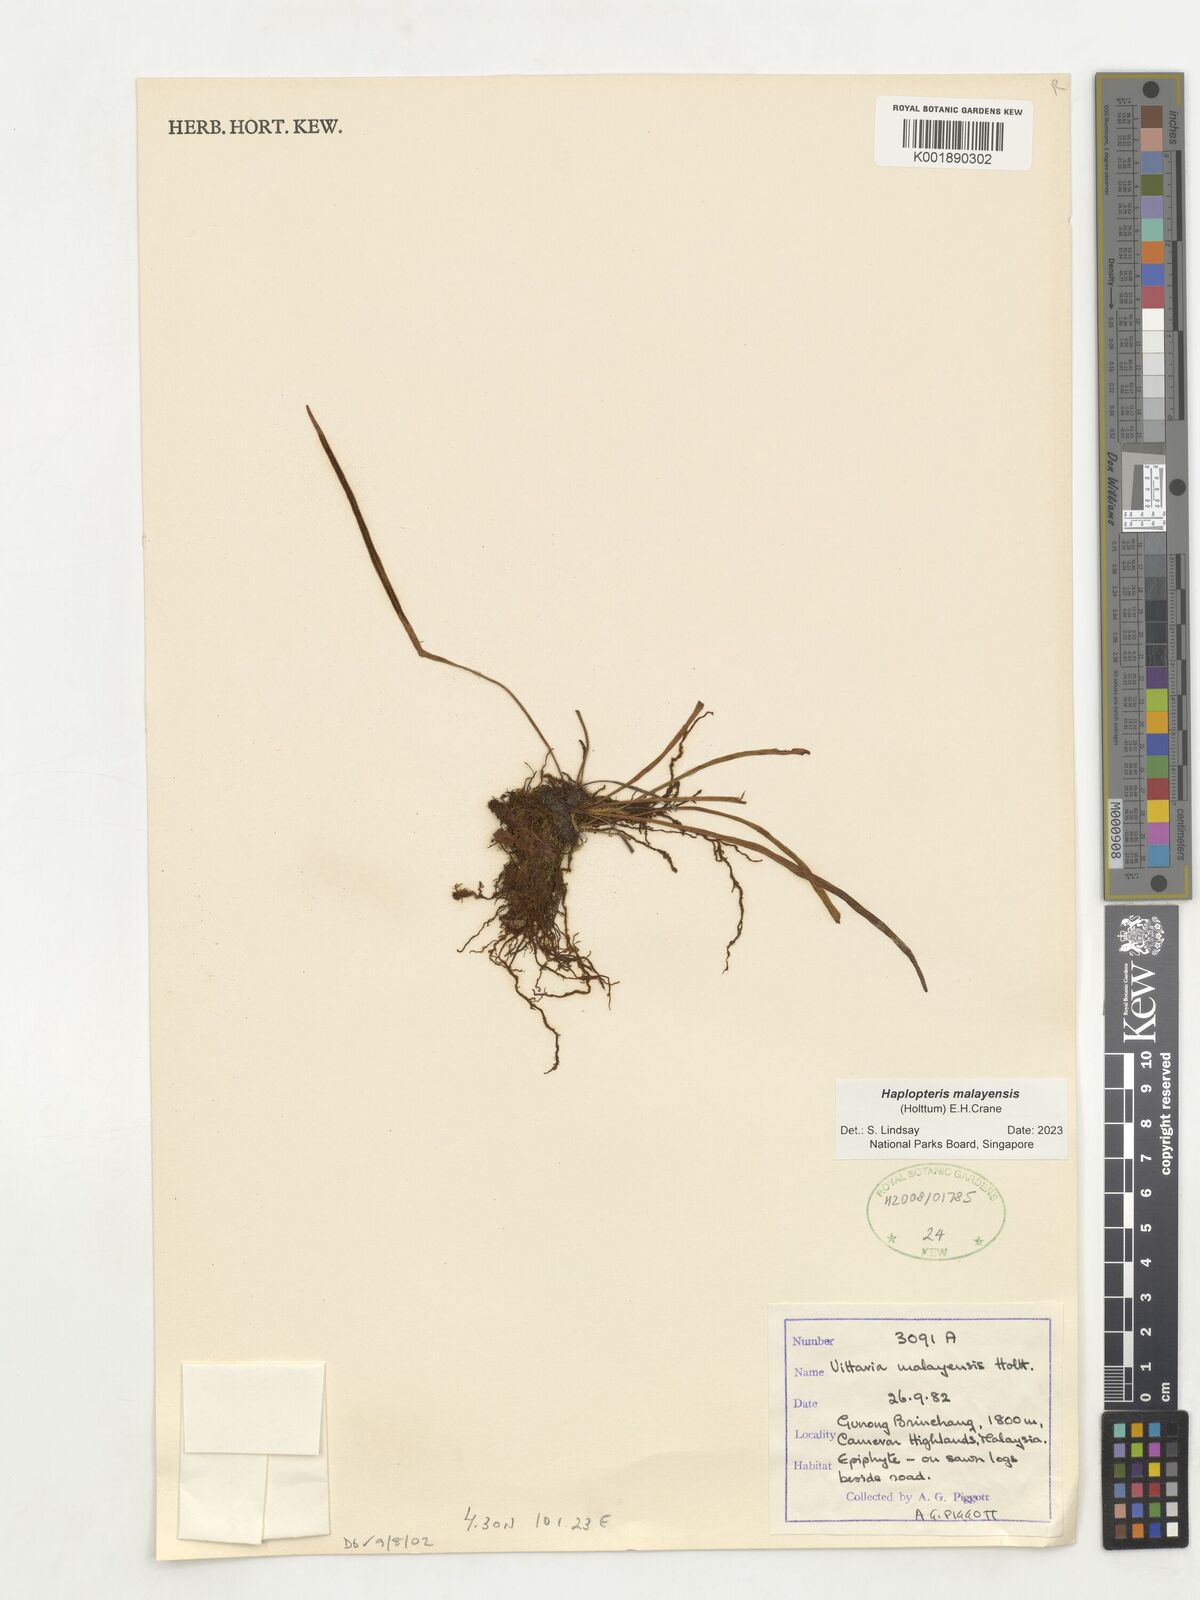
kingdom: Plantae
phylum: Tracheophyta
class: Polypodiopsida
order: Polypodiales
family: Pteridaceae
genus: Haplopteris
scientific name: Haplopteris malayensis
